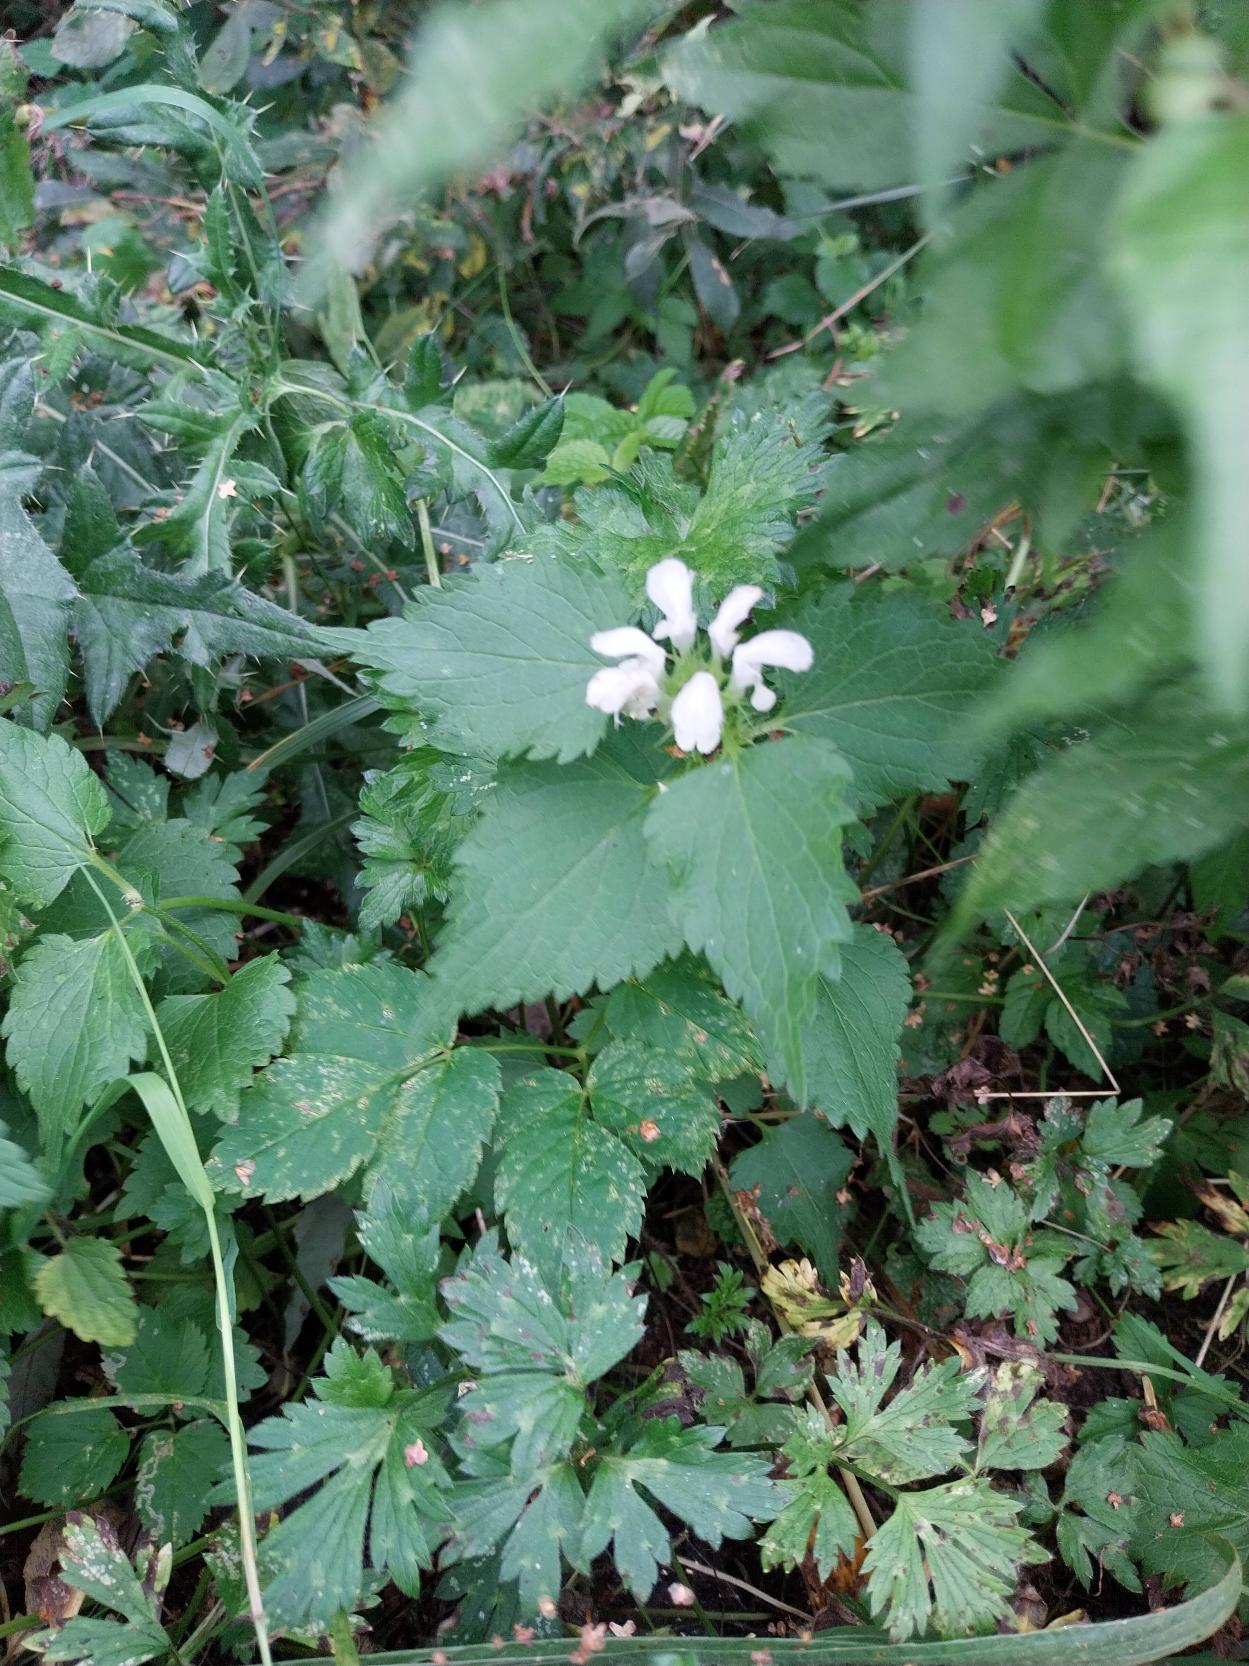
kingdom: Plantae
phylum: Tracheophyta
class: Magnoliopsida
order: Lamiales
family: Lamiaceae
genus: Lamium
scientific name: Lamium album
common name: Døvnælde
